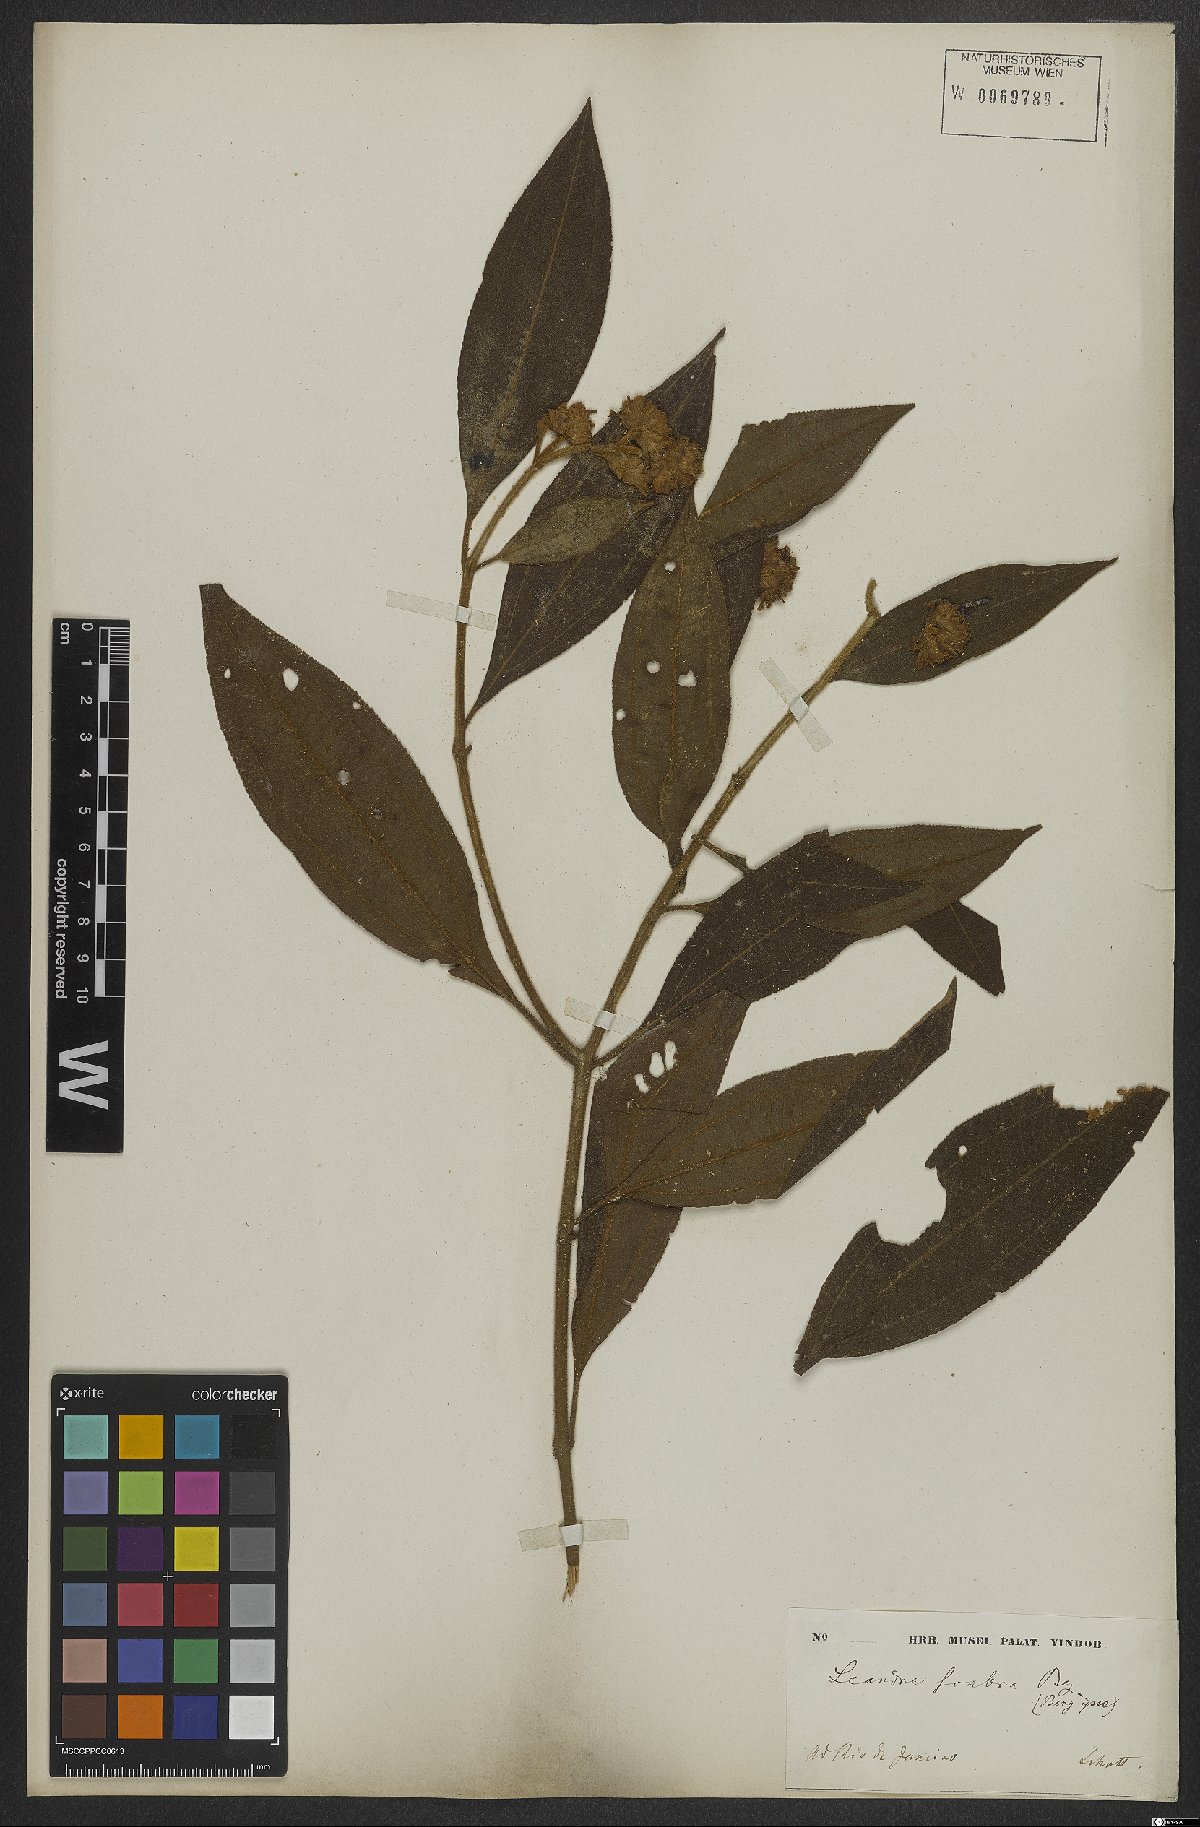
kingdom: Plantae
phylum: Tracheophyta
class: Magnoliopsida
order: Myrtales
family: Melastomataceae
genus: Miconia
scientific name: Miconia melastomoides
